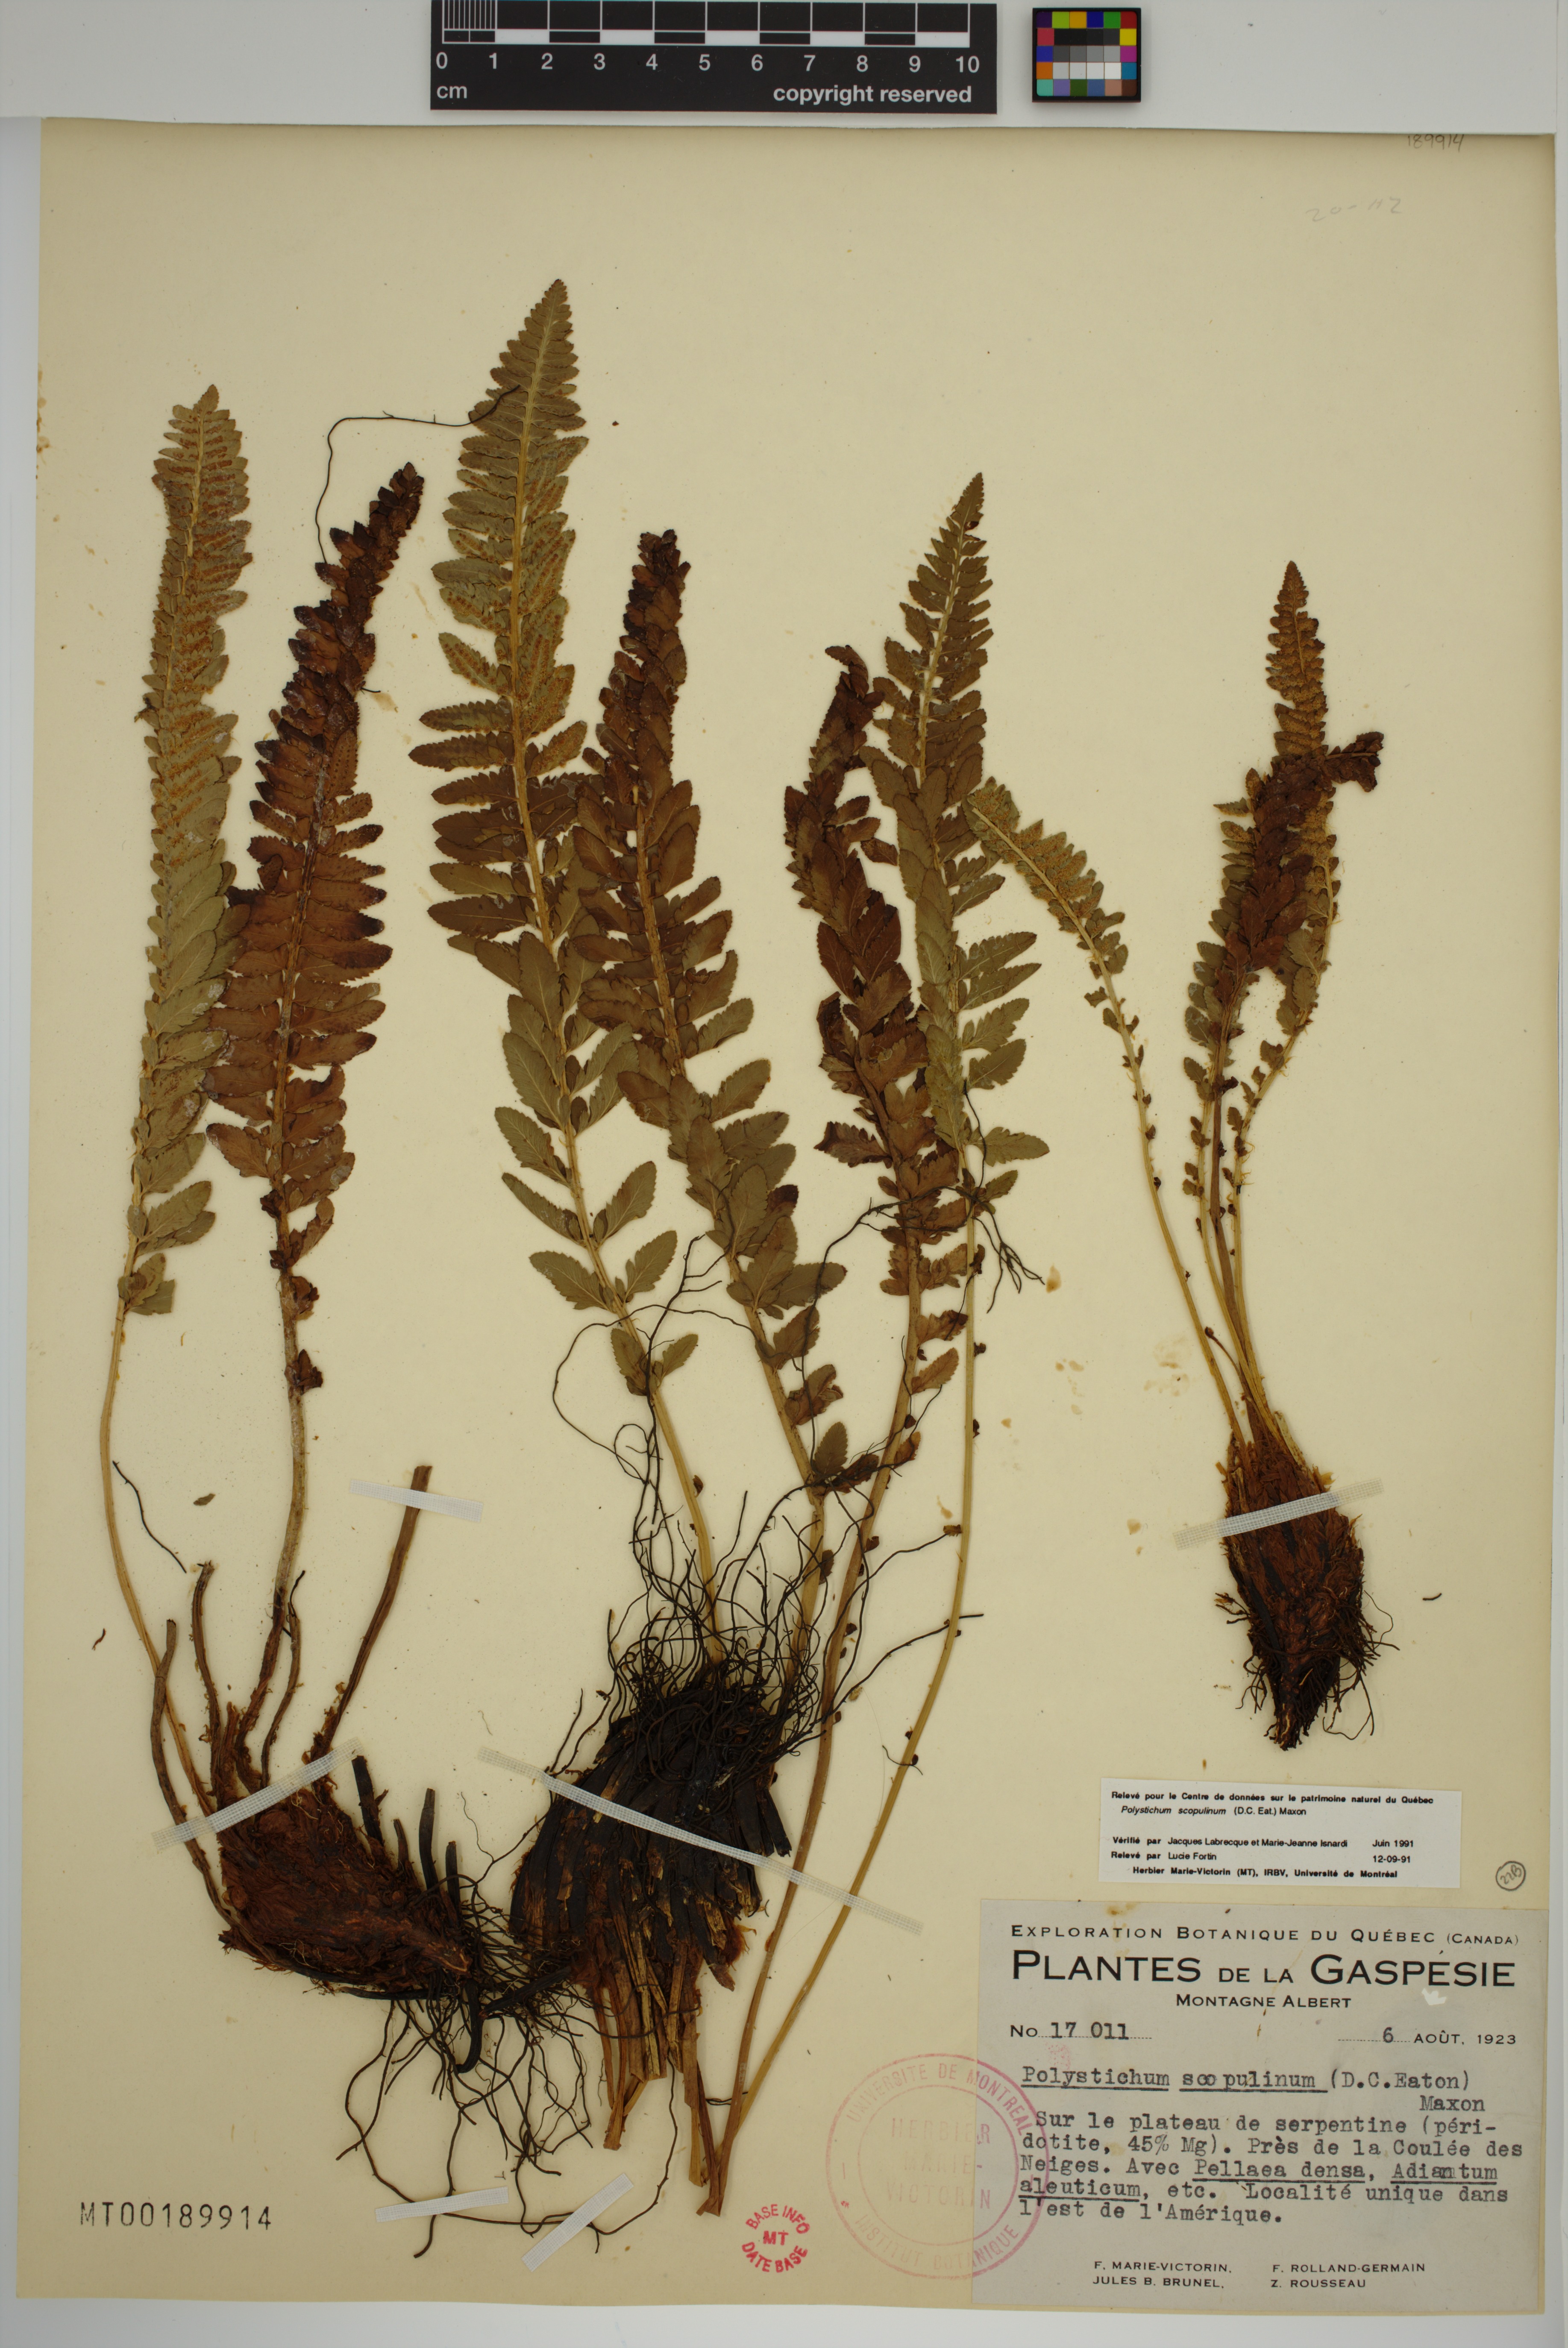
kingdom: Plantae
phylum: Tracheophyta
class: Polypodiopsida
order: Polypodiales
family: Dryopteridaceae
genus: Polystichum
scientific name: Polystichum scopulinum
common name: Eaton's shield fern
